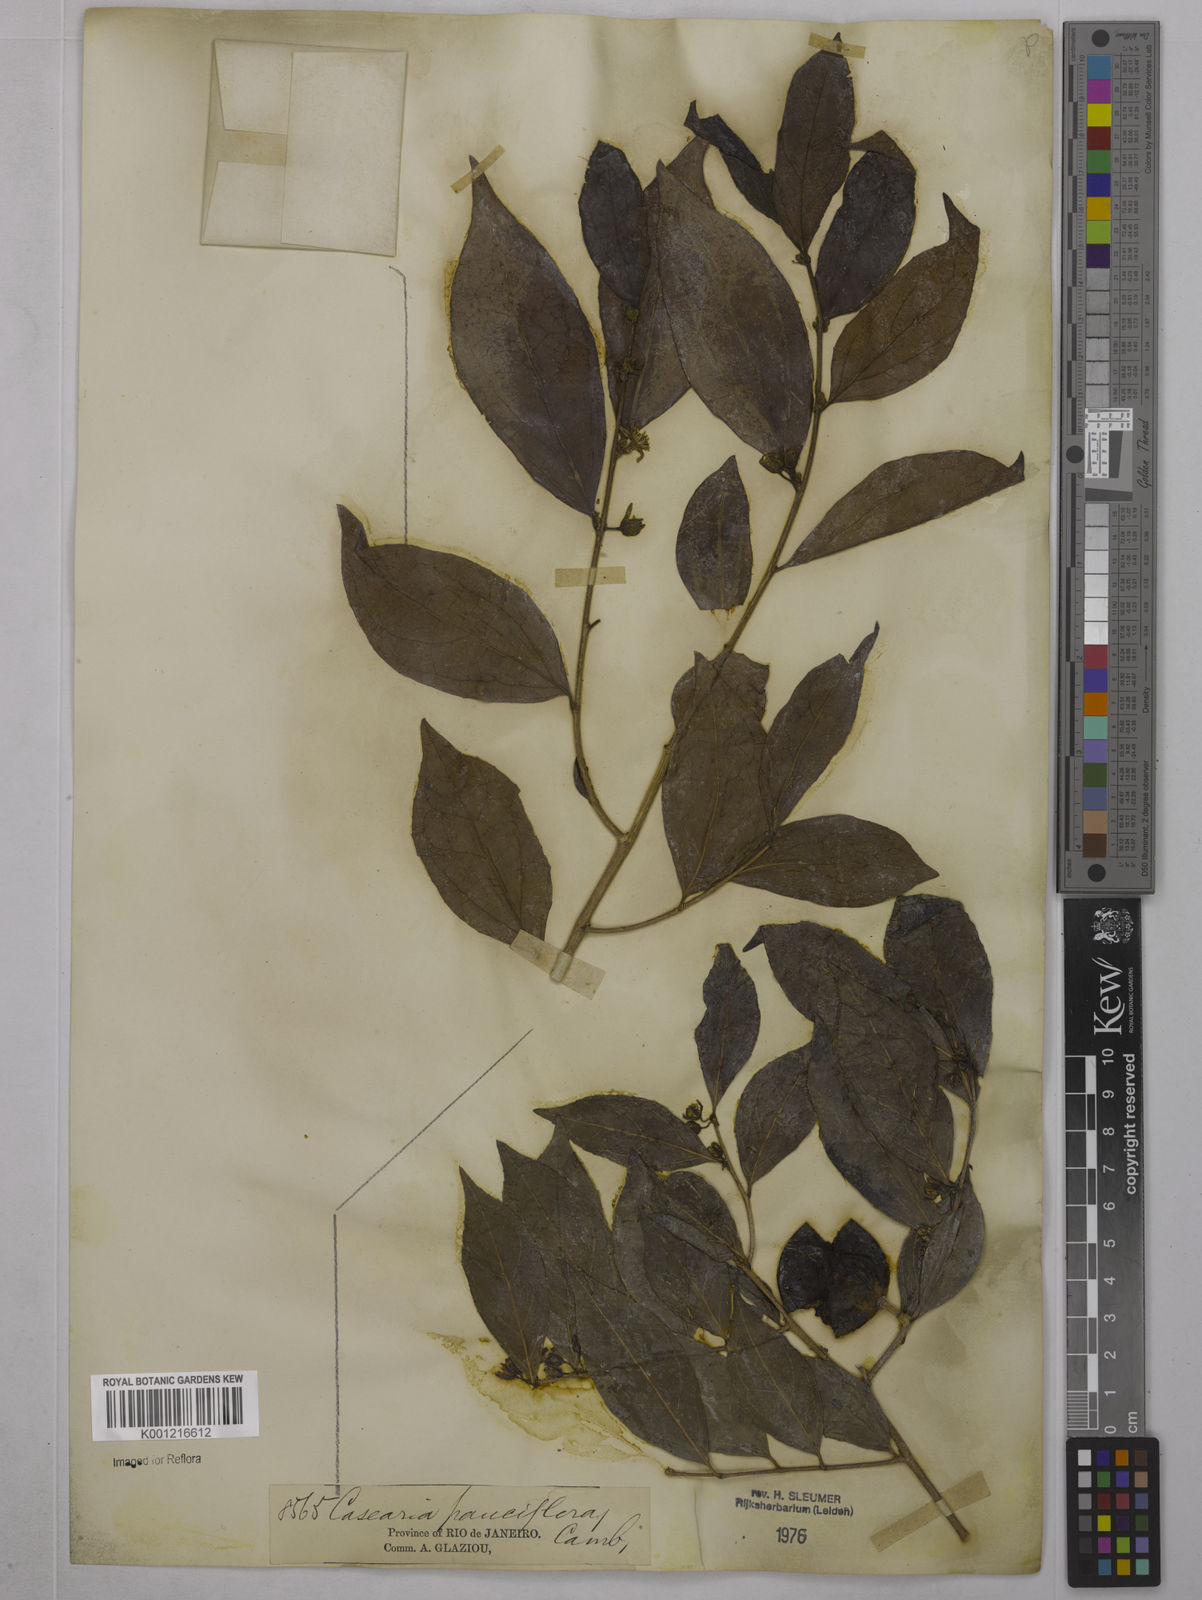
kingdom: Plantae
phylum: Tracheophyta
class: Magnoliopsida
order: Malpighiales
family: Salicaceae
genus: Casearia
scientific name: Casearia pauciflora
